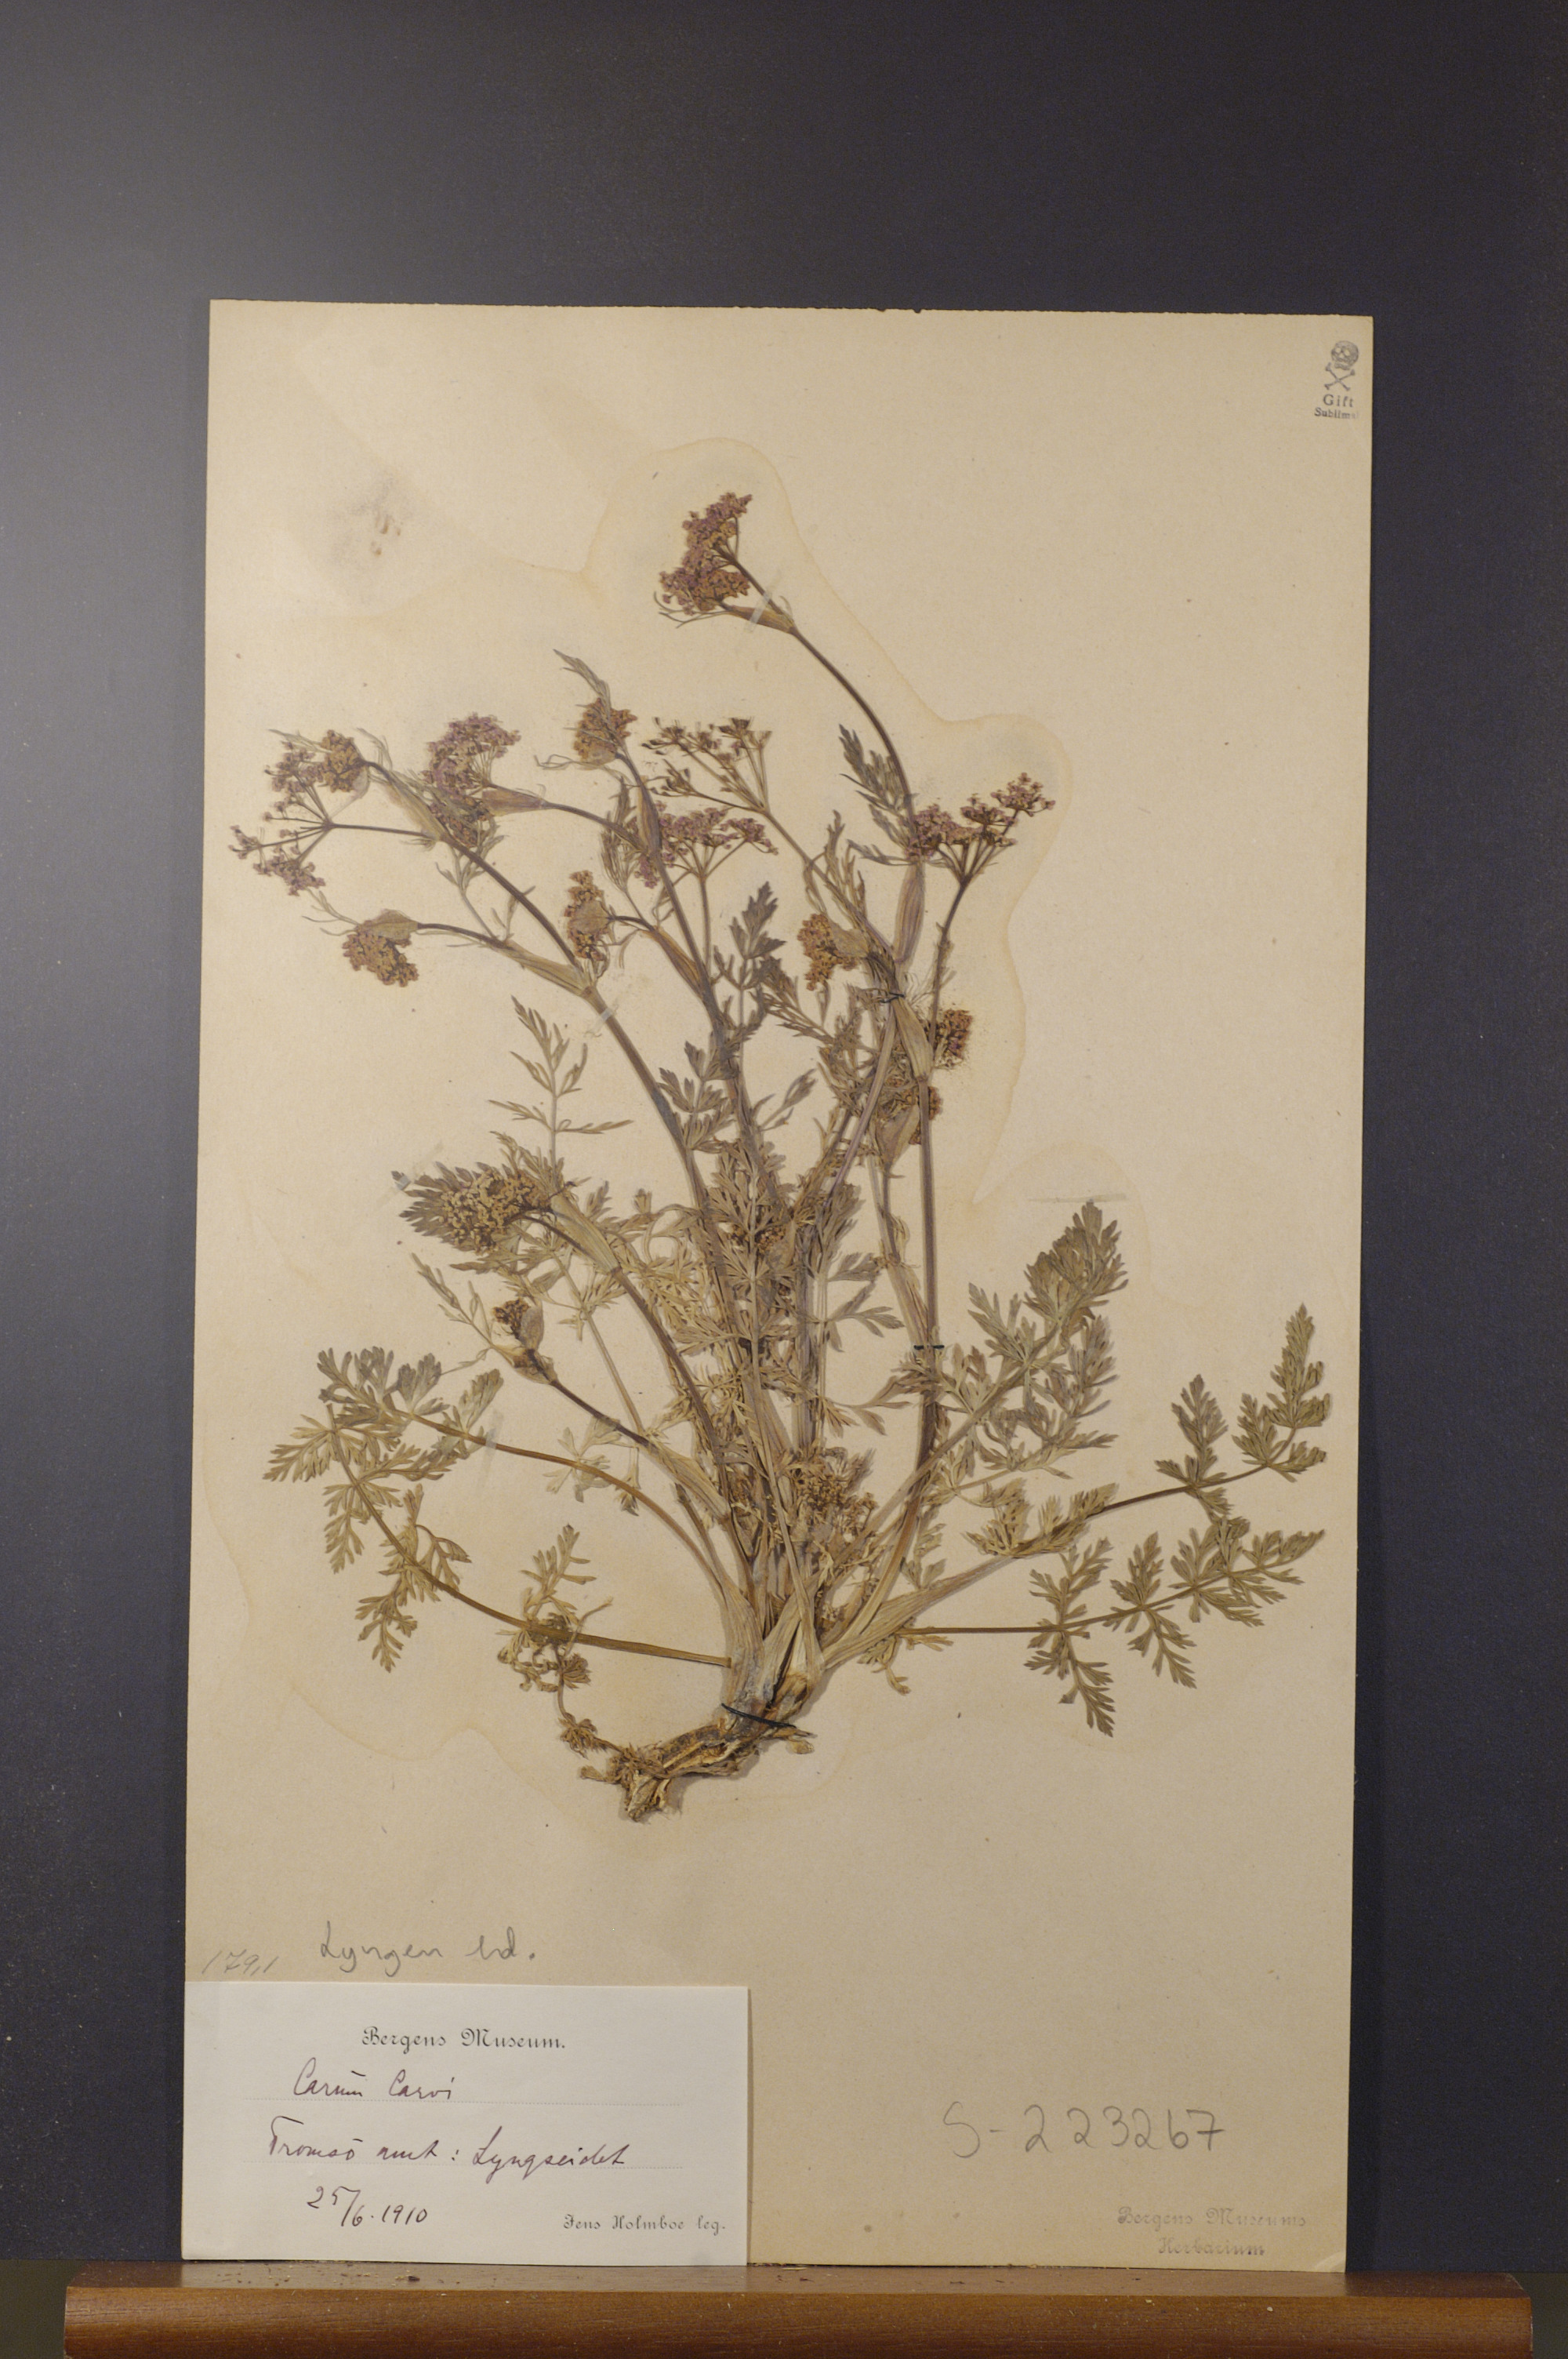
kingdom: Plantae
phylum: Tracheophyta
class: Magnoliopsida
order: Apiales
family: Apiaceae
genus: Carum
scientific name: Carum carvi
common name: Caraway
